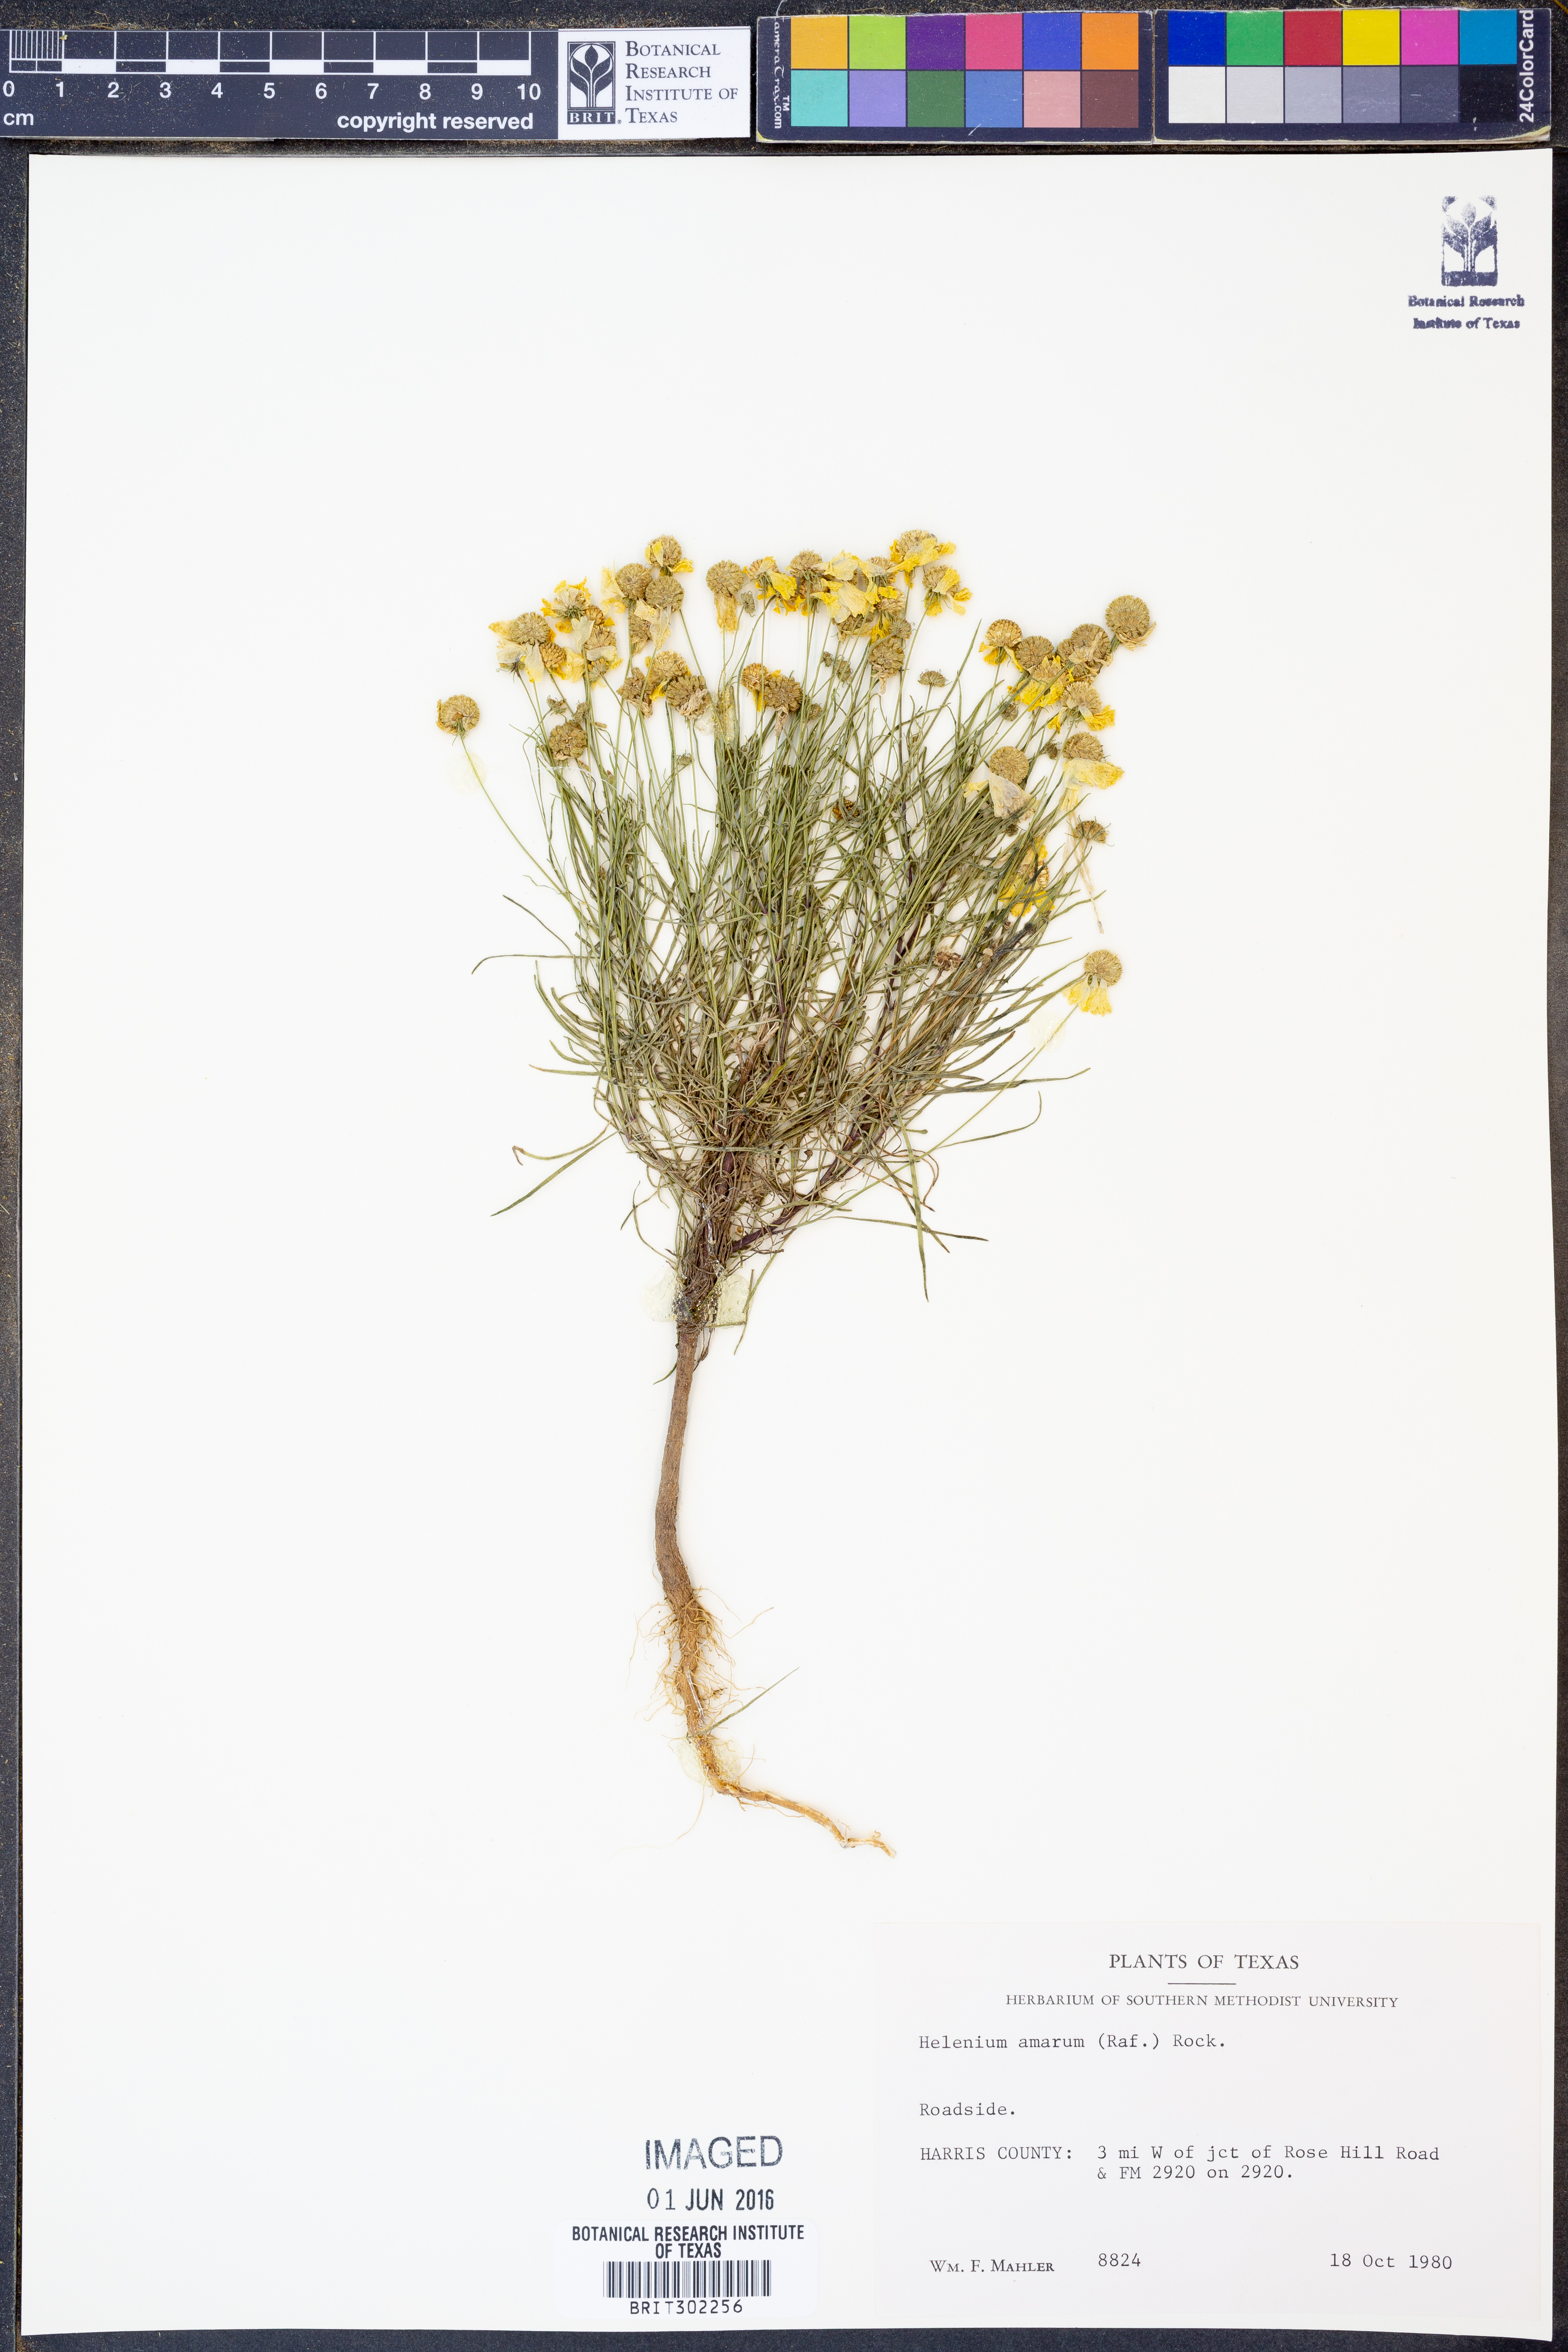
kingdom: Plantae
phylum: Tracheophyta
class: Magnoliopsida
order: Asterales
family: Asteraceae
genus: Helenium
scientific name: Helenium amarum
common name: Bitter sneezeweed
